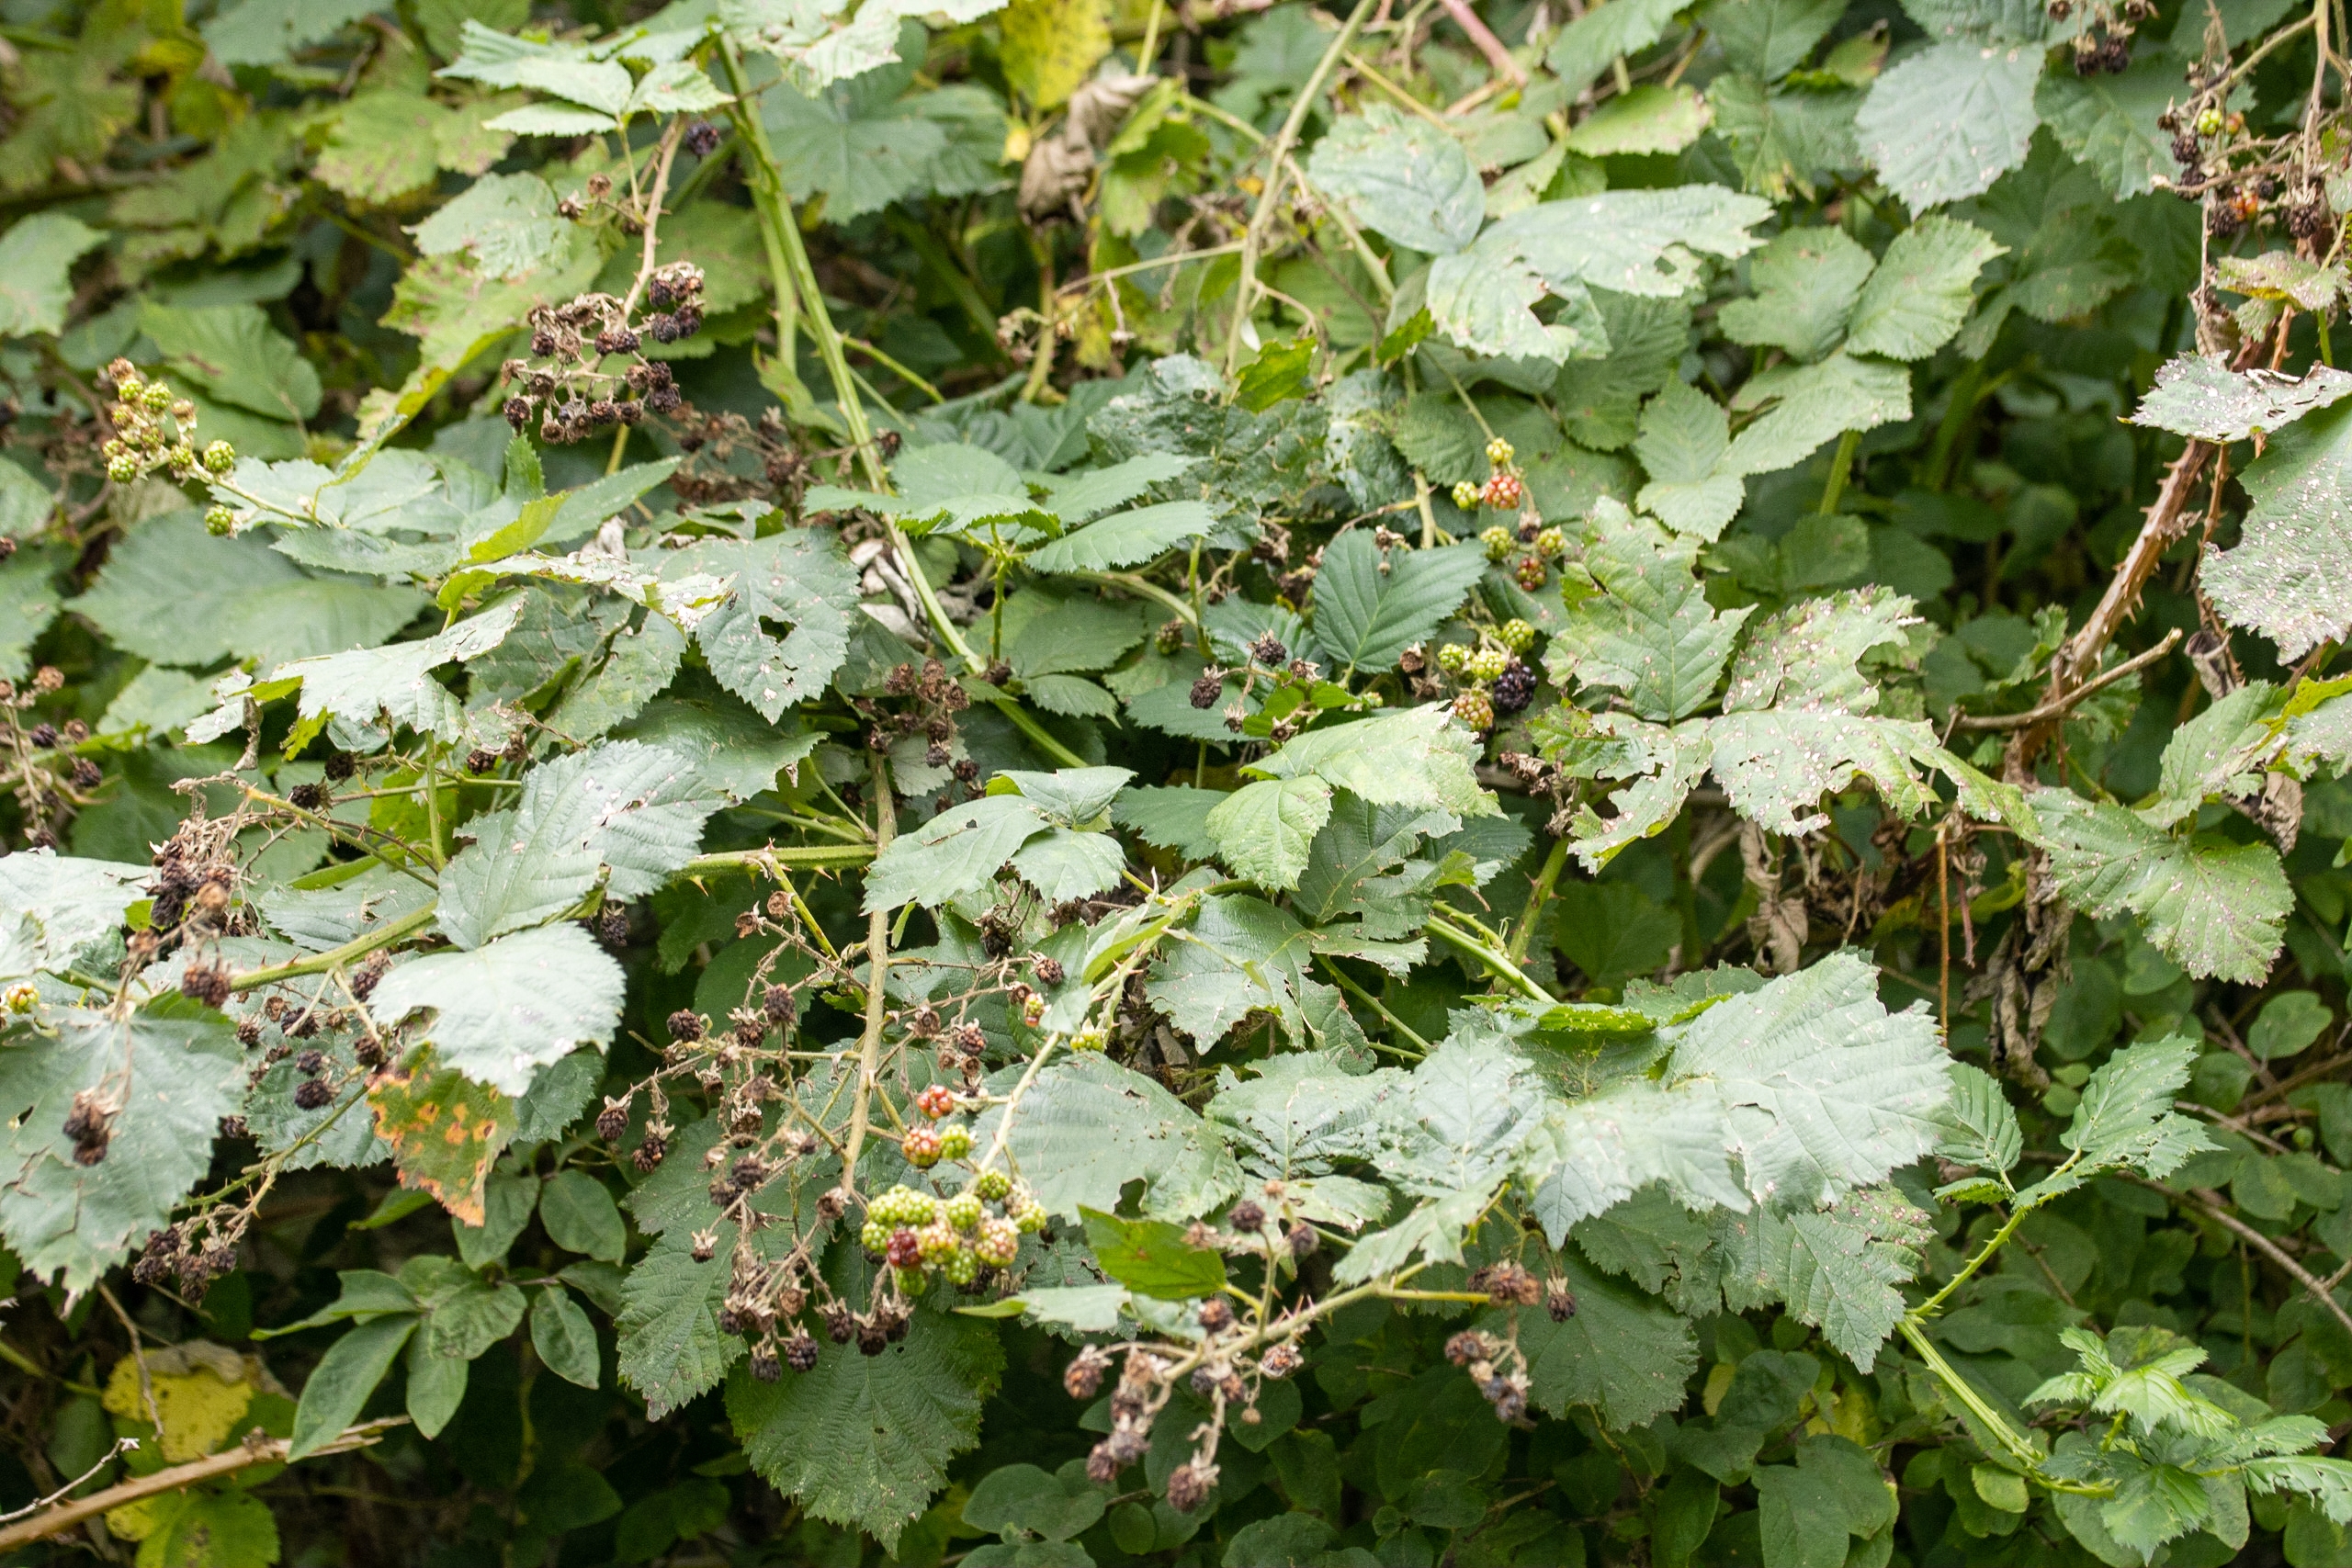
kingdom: Plantae
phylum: Tracheophyta
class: Magnoliopsida
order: Rosales
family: Rosaceae
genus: Rubus
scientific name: Rubus armeniacus
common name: Armensk brombær
